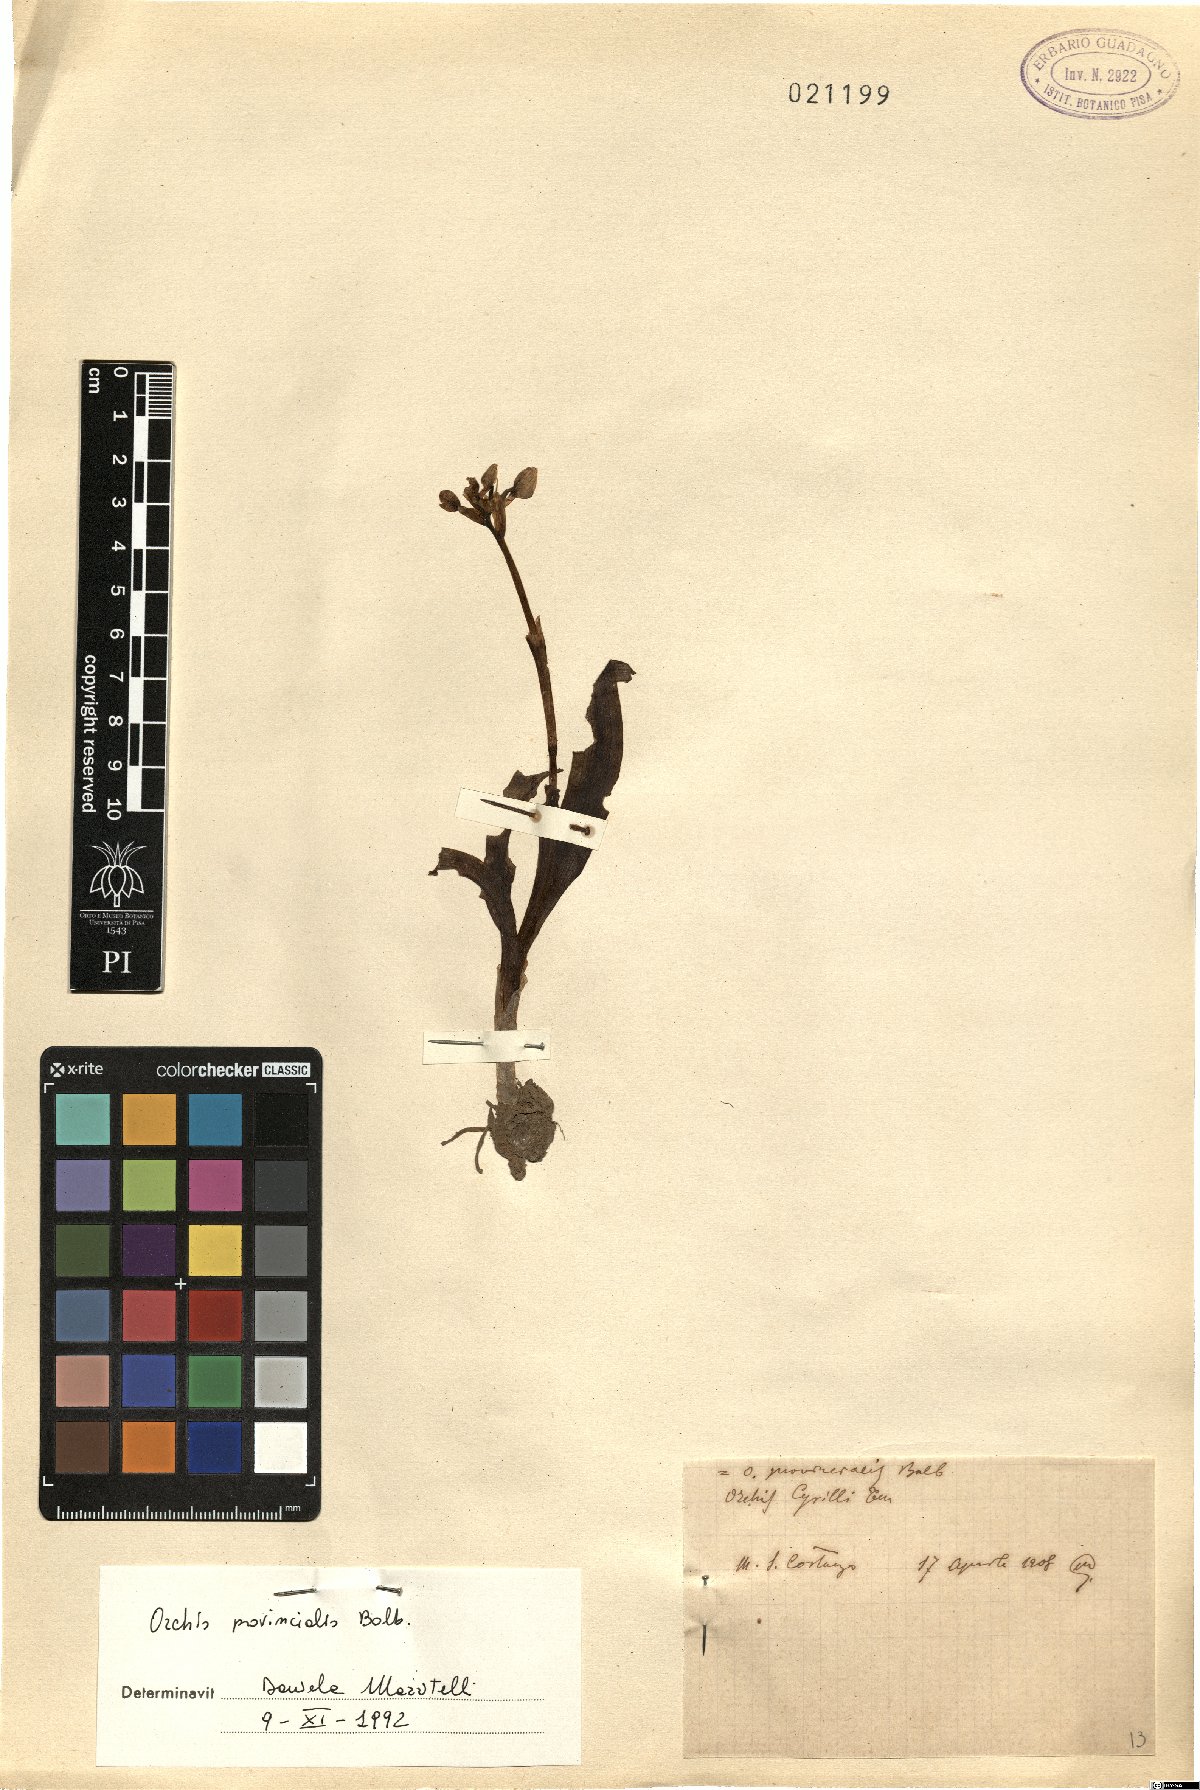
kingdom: Plantae
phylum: Tracheophyta
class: Liliopsida
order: Asparagales
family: Orchidaceae
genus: Orchis
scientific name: Orchis provincialis
